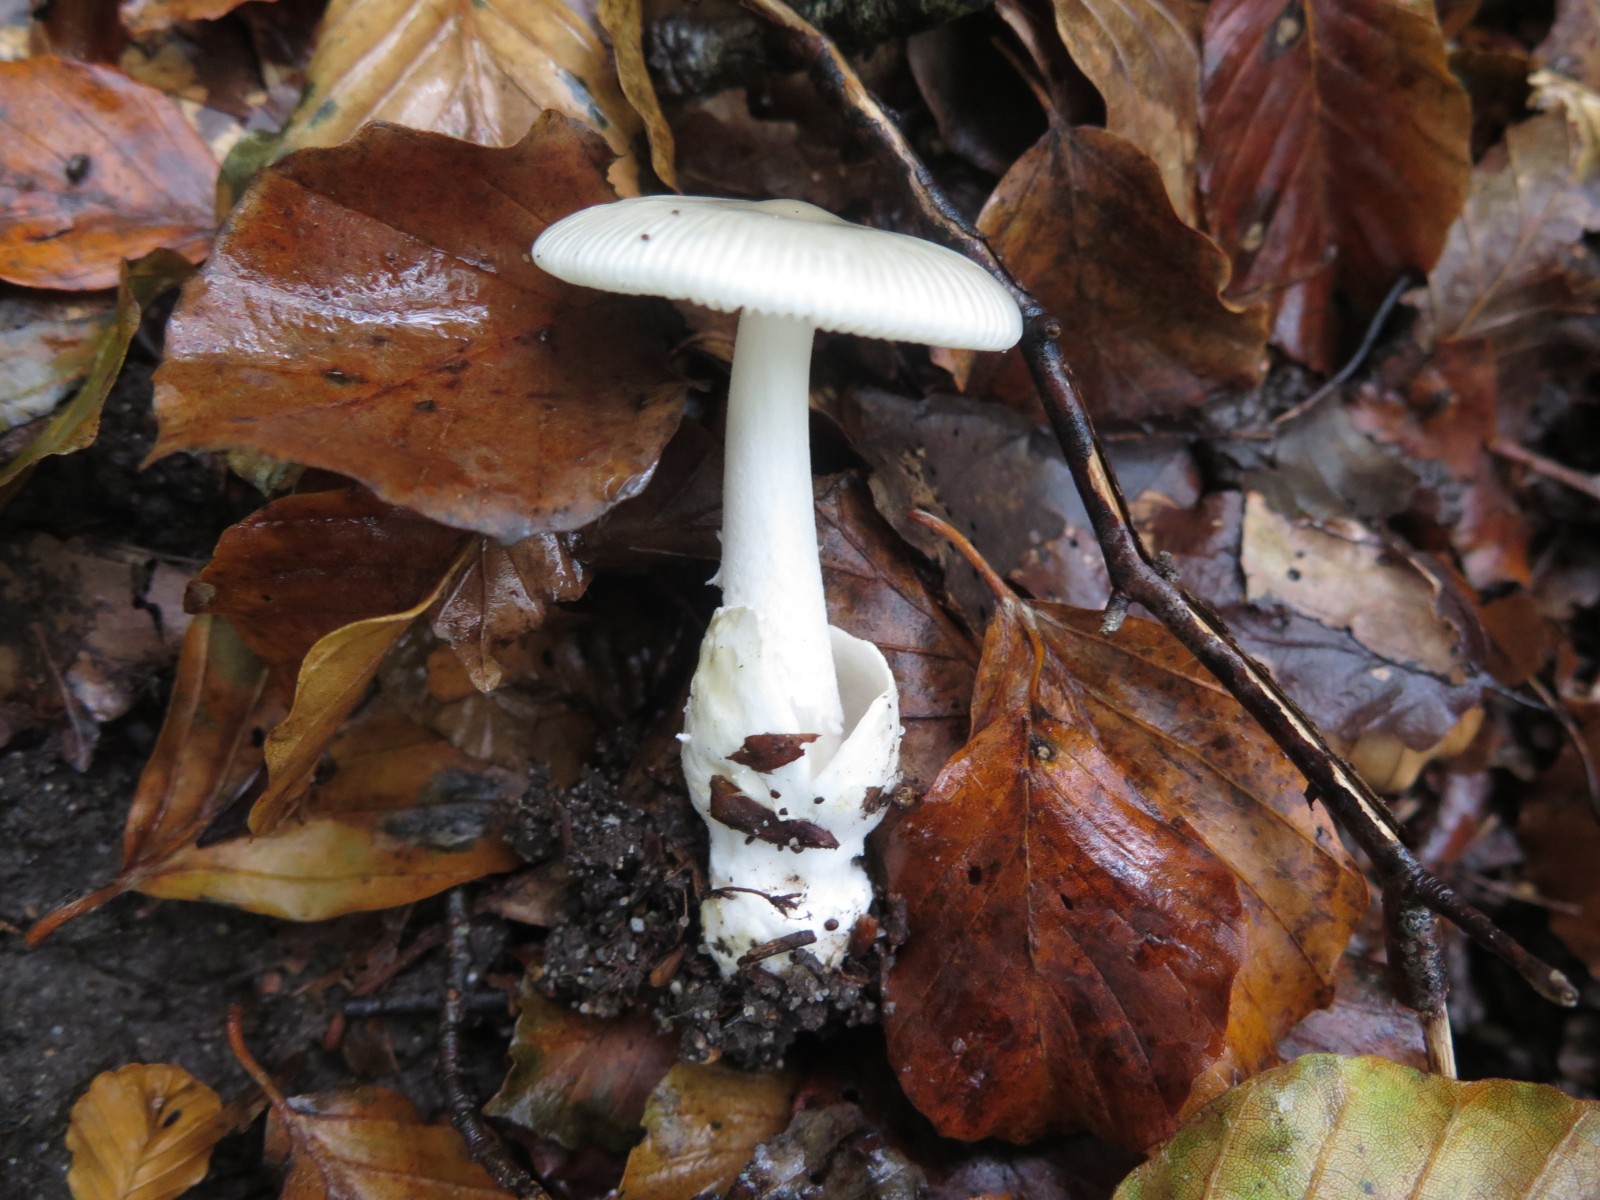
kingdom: Fungi
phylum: Basidiomycota
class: Agaricomycetes
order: Agaricales
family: Amanitaceae
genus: Amanita
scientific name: Amanita vaginata
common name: grå kam-fluesvamp
